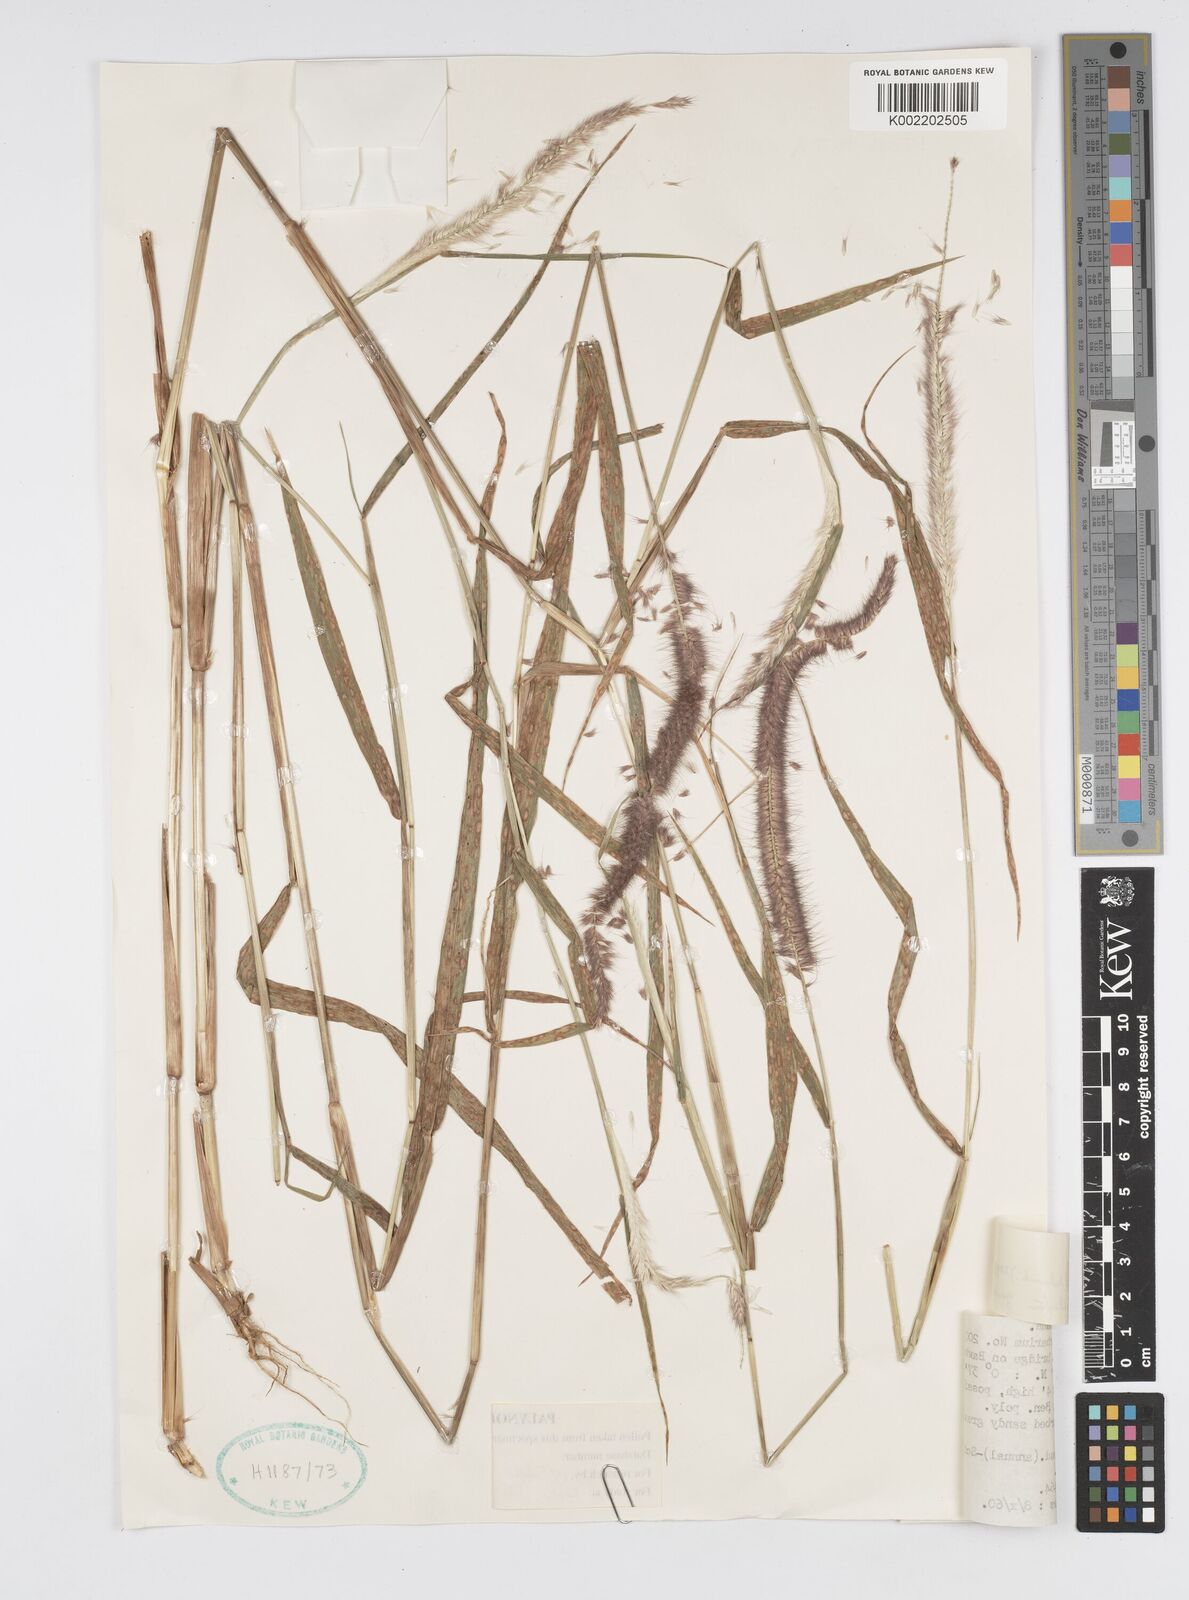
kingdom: Plantae
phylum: Tracheophyta
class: Liliopsida
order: Poales
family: Poaceae
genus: Setaria
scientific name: Setaria parviflora
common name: Knotroot bristle-grass
